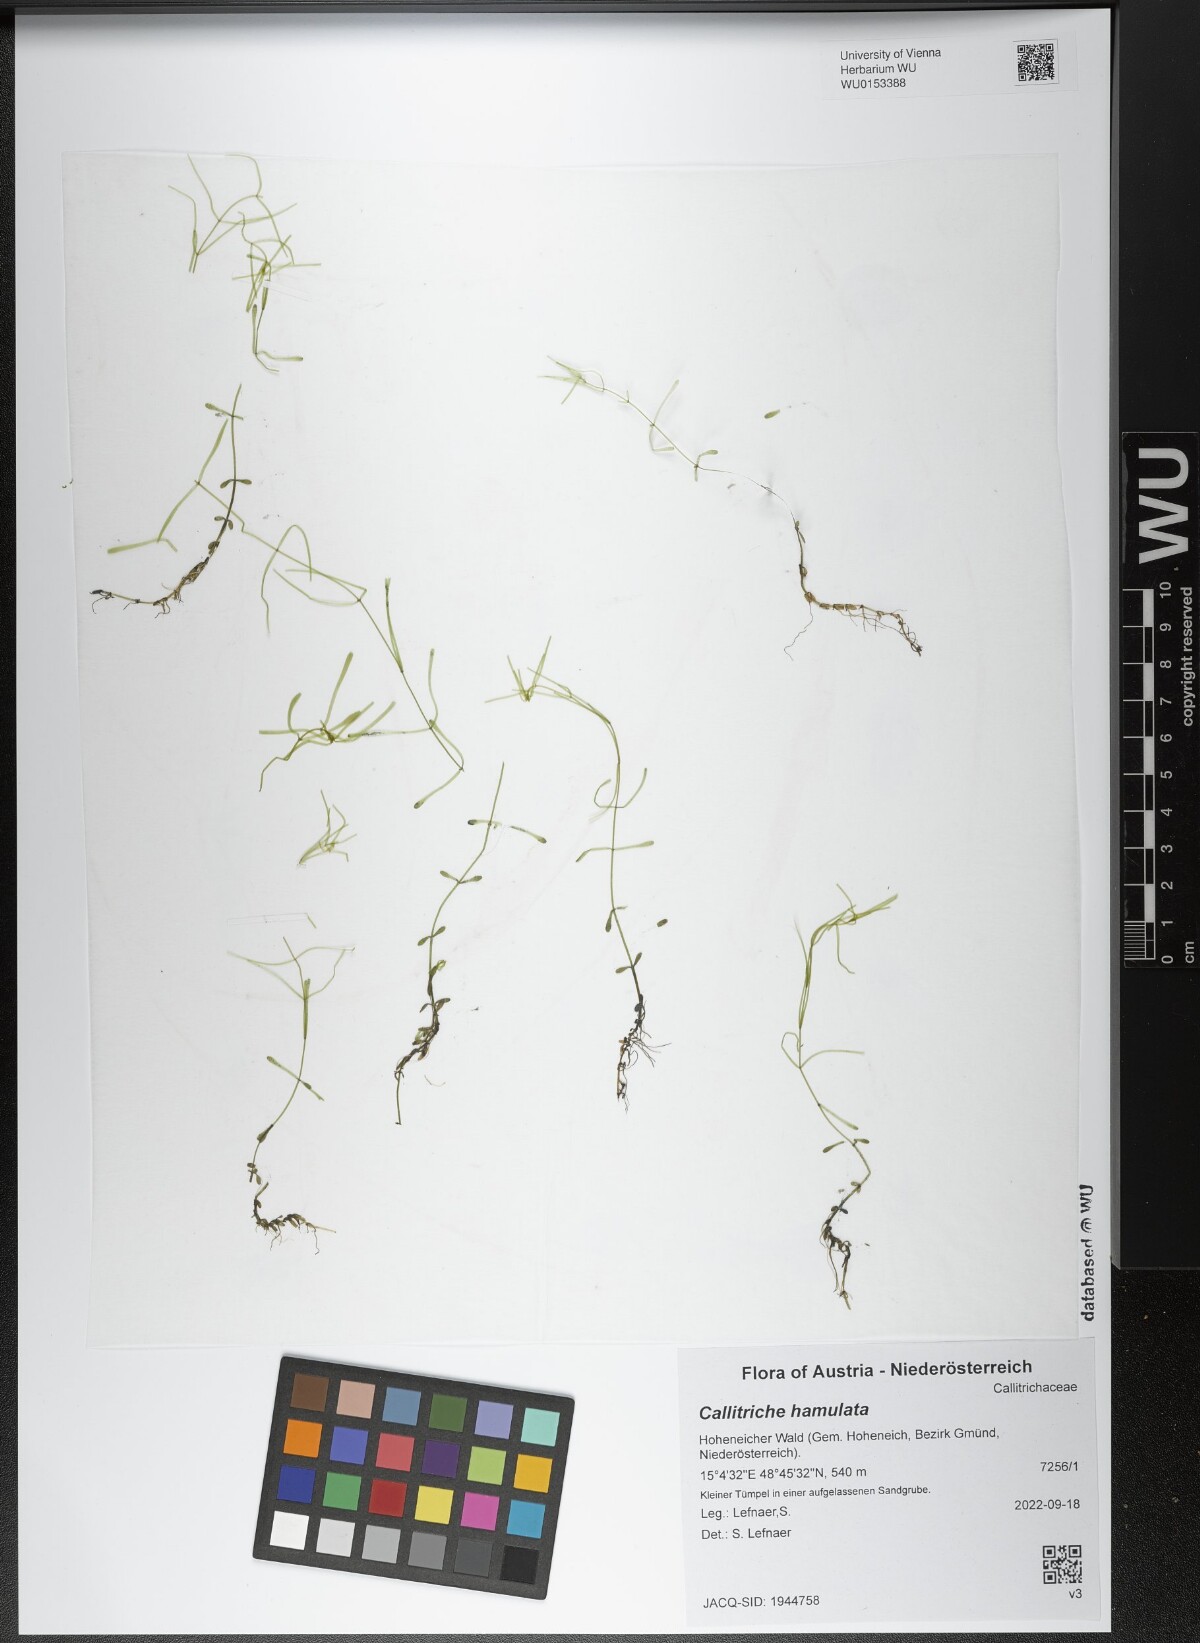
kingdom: Plantae
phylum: Tracheophyta
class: Magnoliopsida
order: Lamiales
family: Plantaginaceae
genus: Callitriche
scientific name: Callitriche hamulata
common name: Intermediate water-starwort
